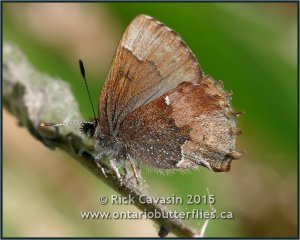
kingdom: Animalia
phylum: Arthropoda
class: Insecta
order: Lepidoptera
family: Lycaenidae
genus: Incisalia
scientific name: Incisalia henrici
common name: Henry's Elfin
